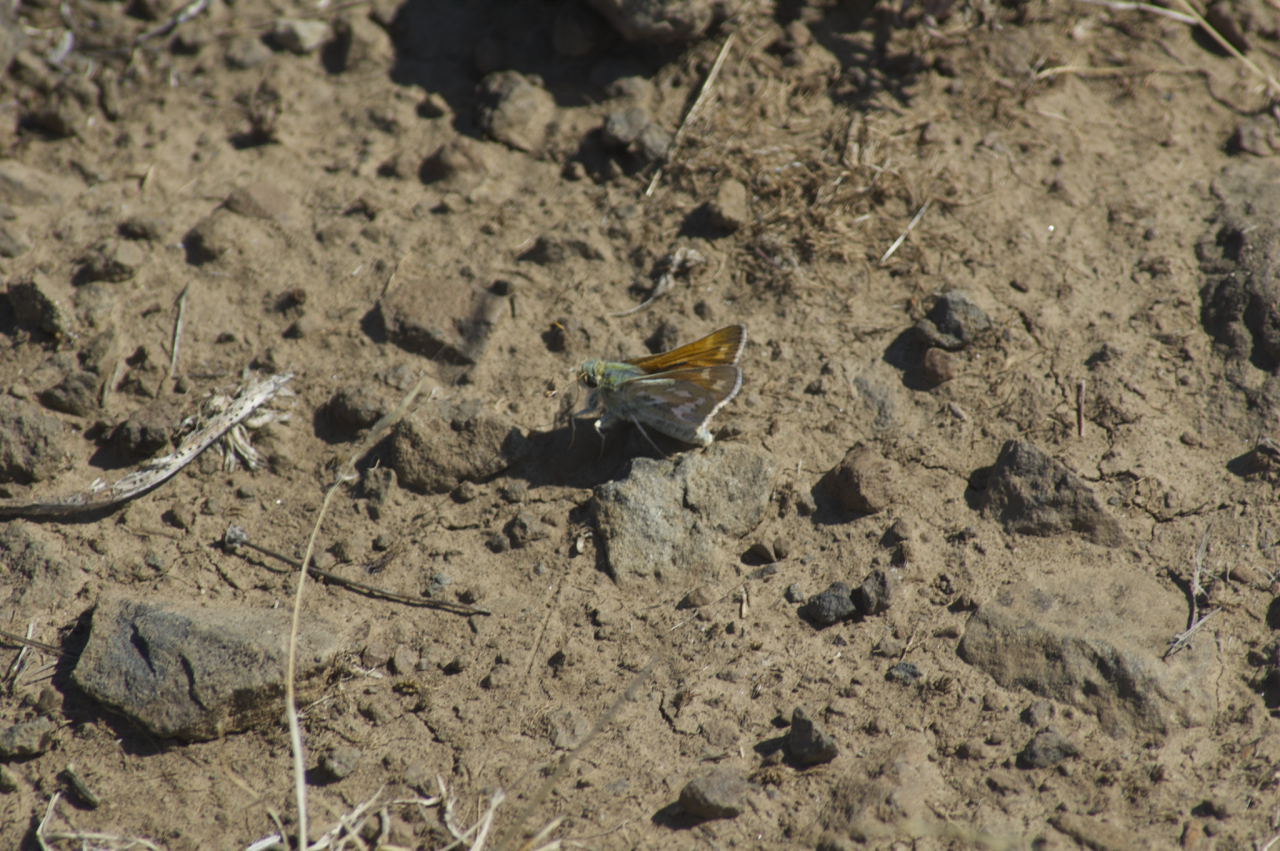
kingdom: Animalia
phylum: Arthropoda
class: Insecta
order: Lepidoptera
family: Hesperiidae
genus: Hesperia
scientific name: Hesperia
